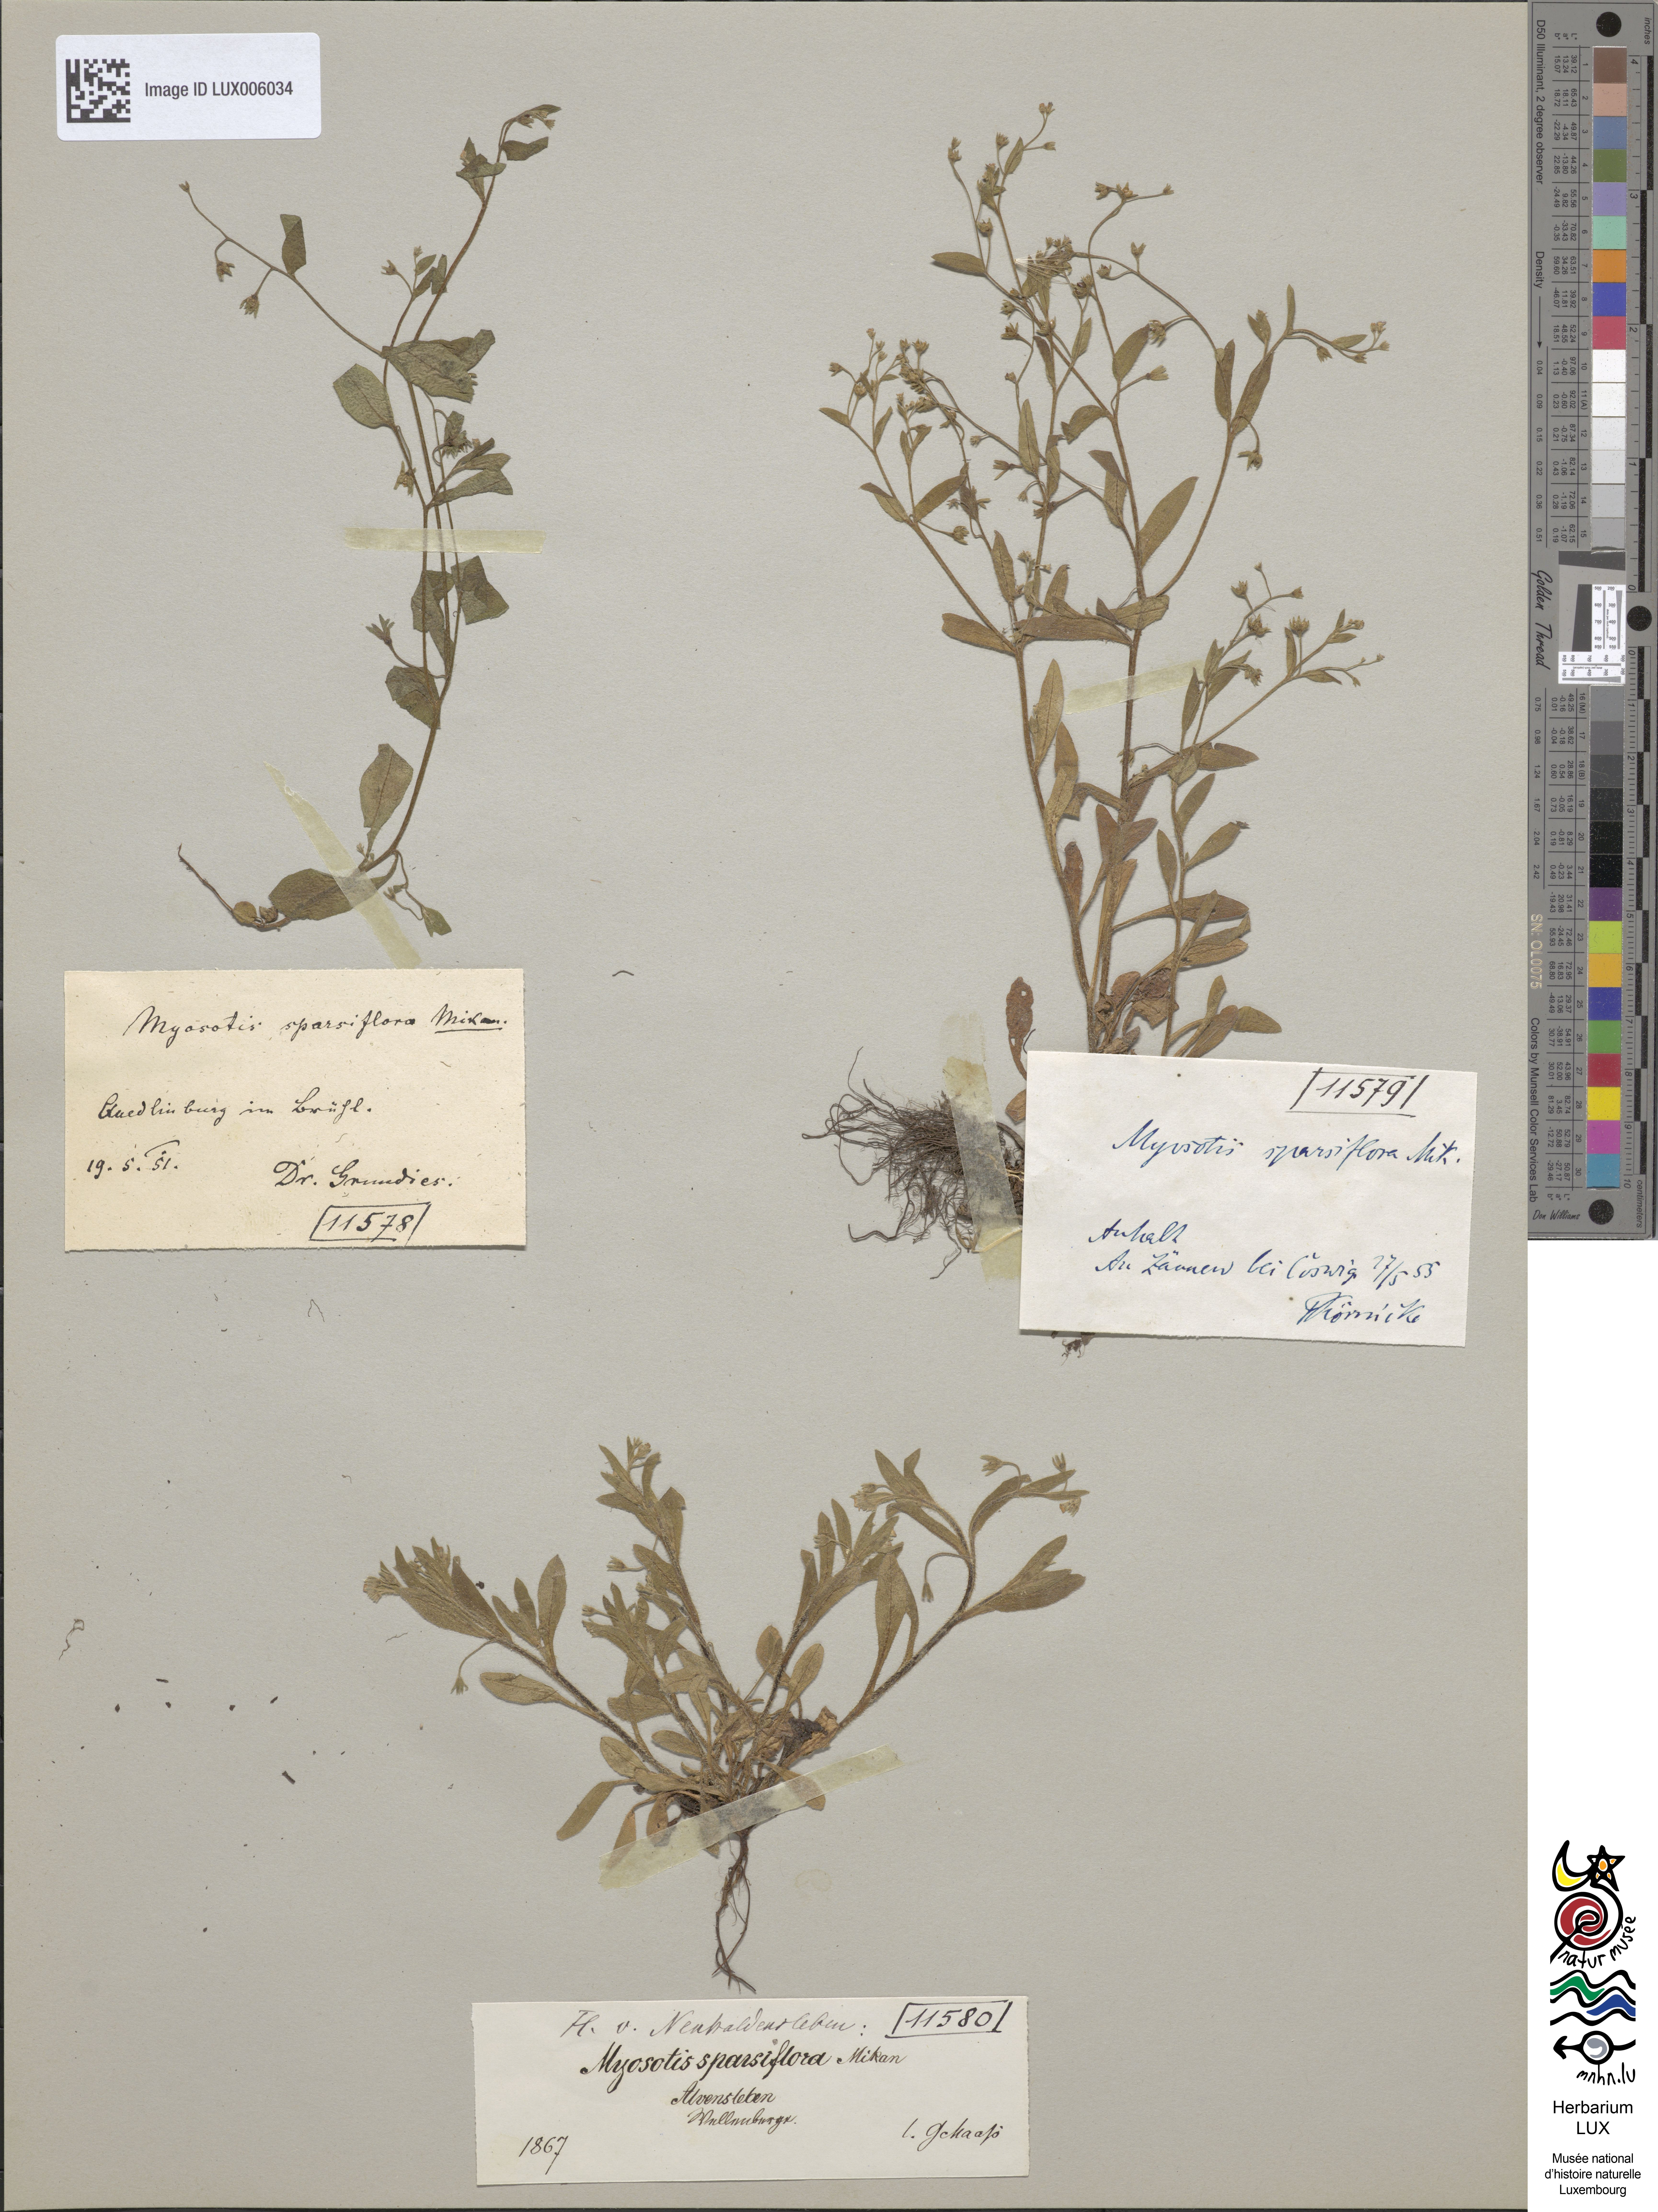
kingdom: Plantae
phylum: Tracheophyta
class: Magnoliopsida
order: Boraginales
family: Boraginaceae
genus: Myosotis
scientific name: Myosotis sparsiflora
